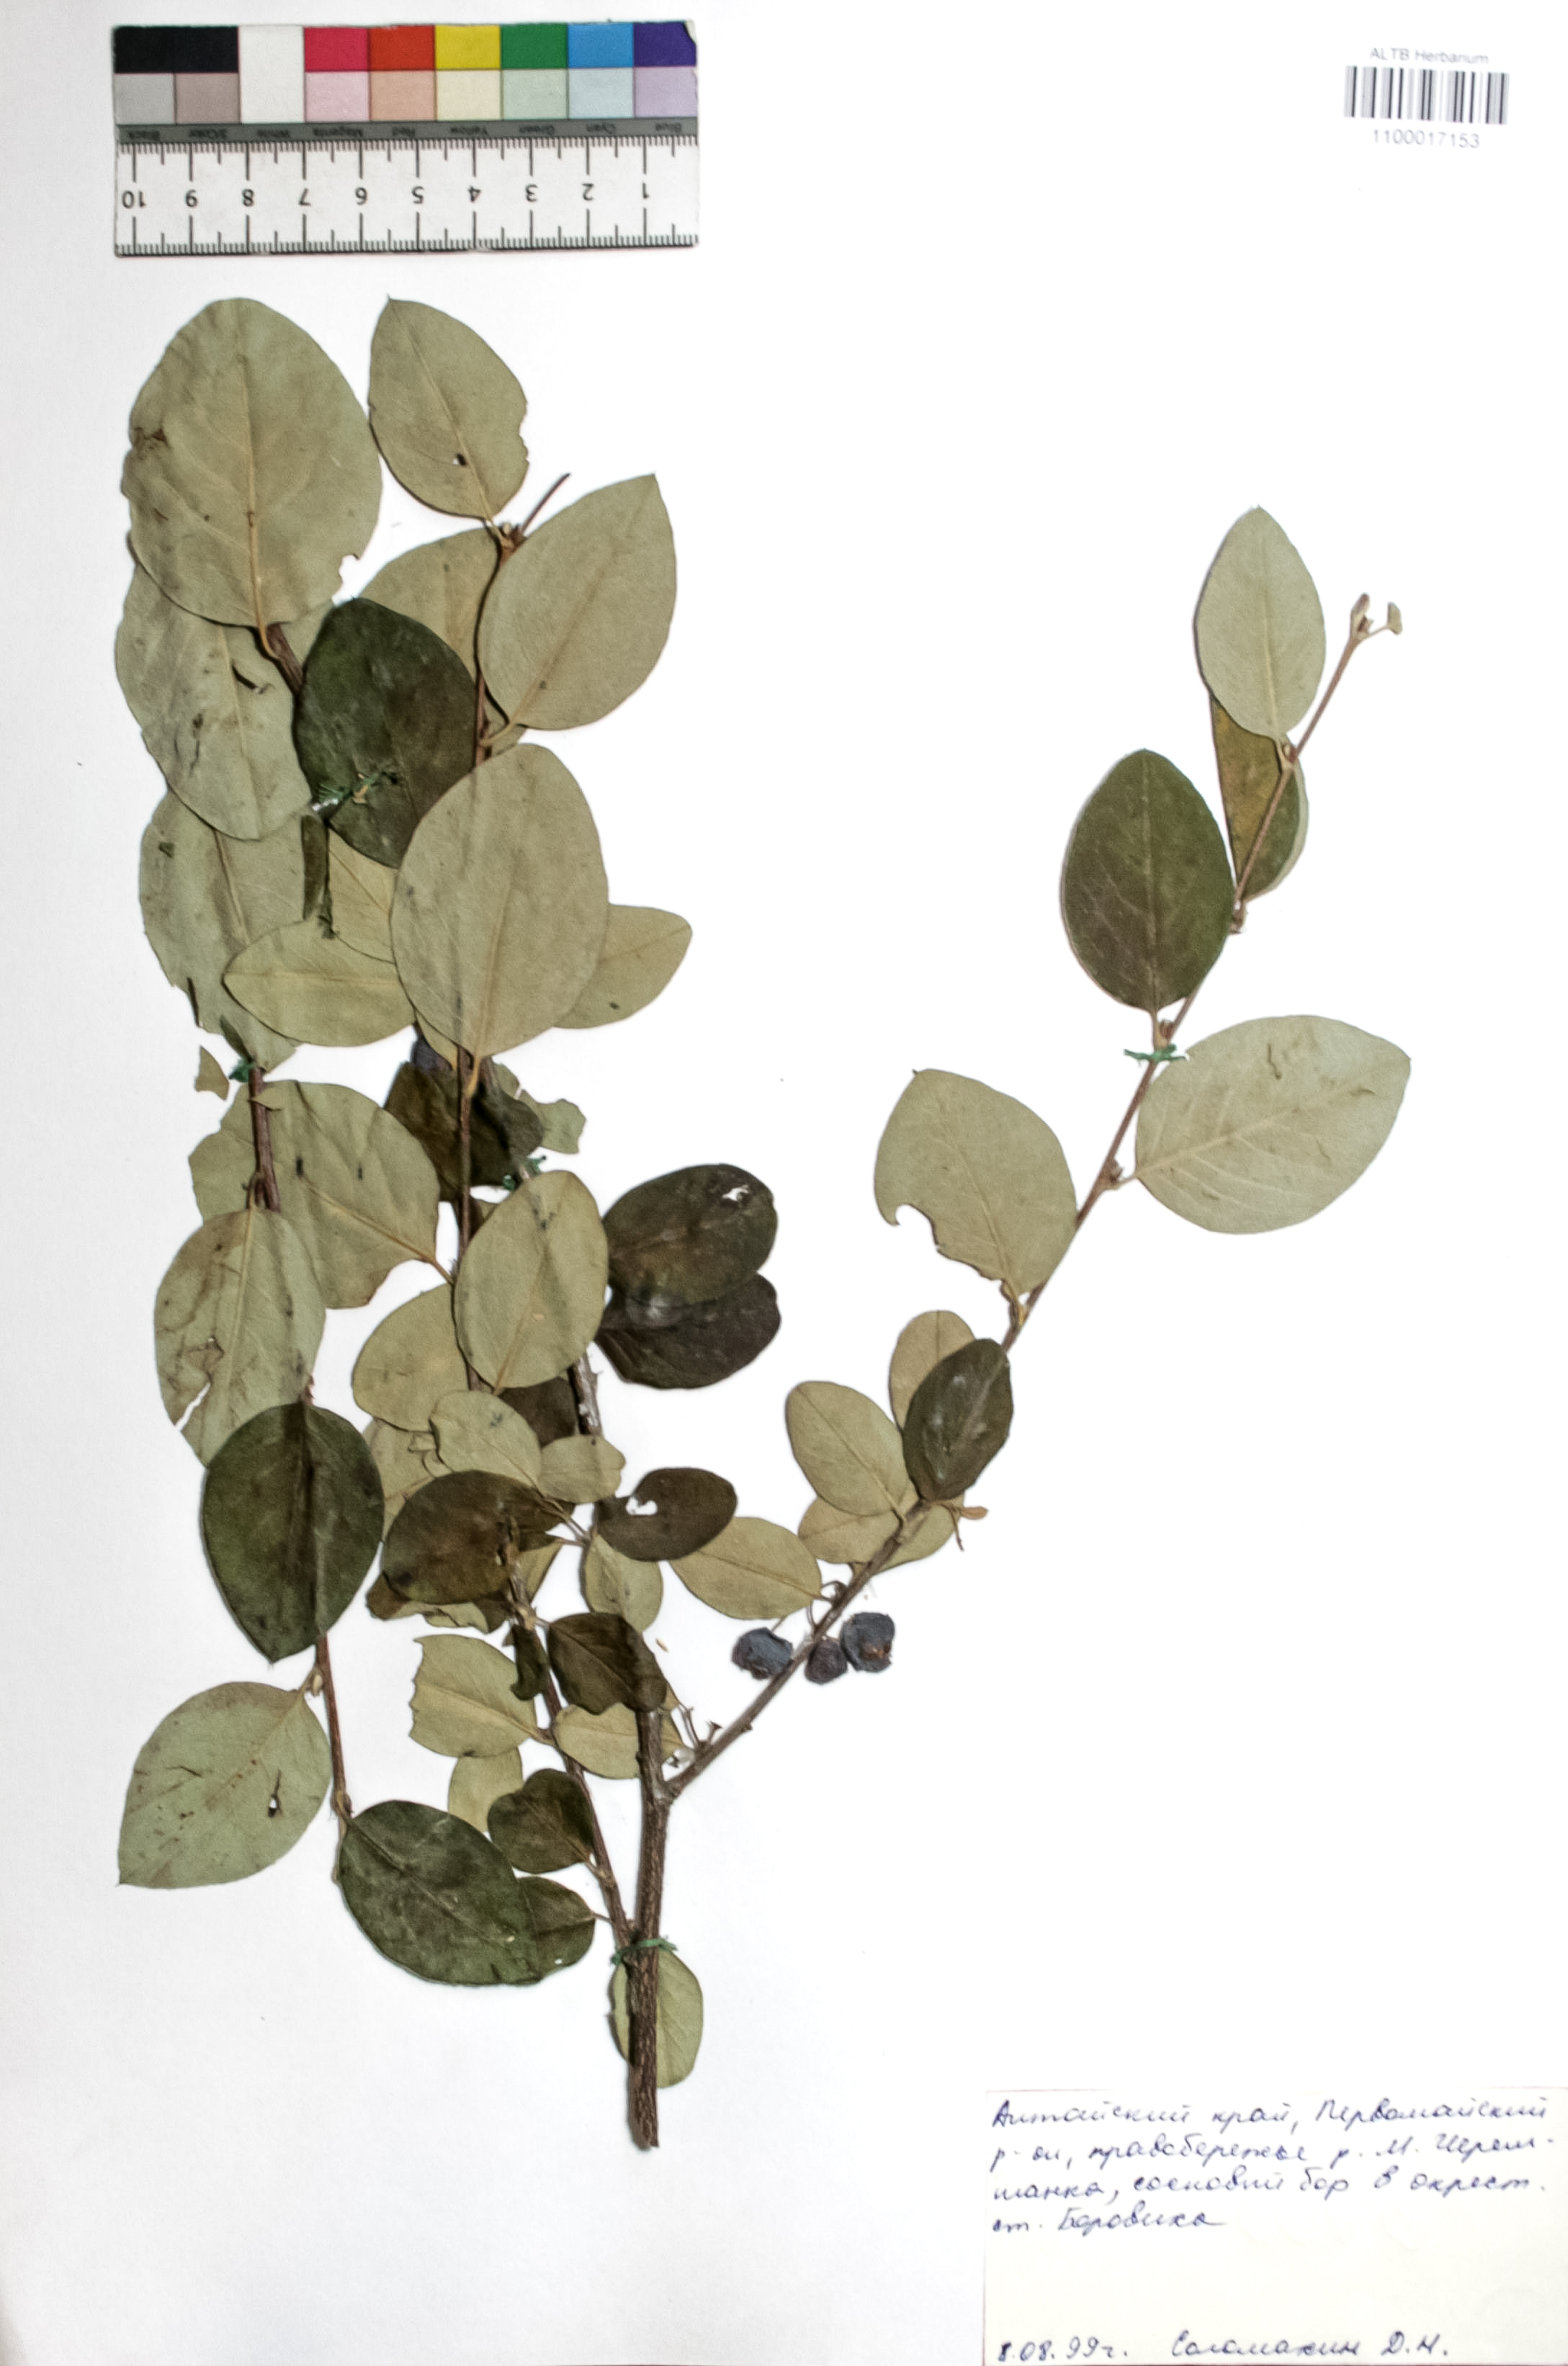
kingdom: Plantae
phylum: Tracheophyta
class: Magnoliopsida
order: Rosales
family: Rosaceae
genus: Cotoneaster
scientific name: Cotoneaster niger
